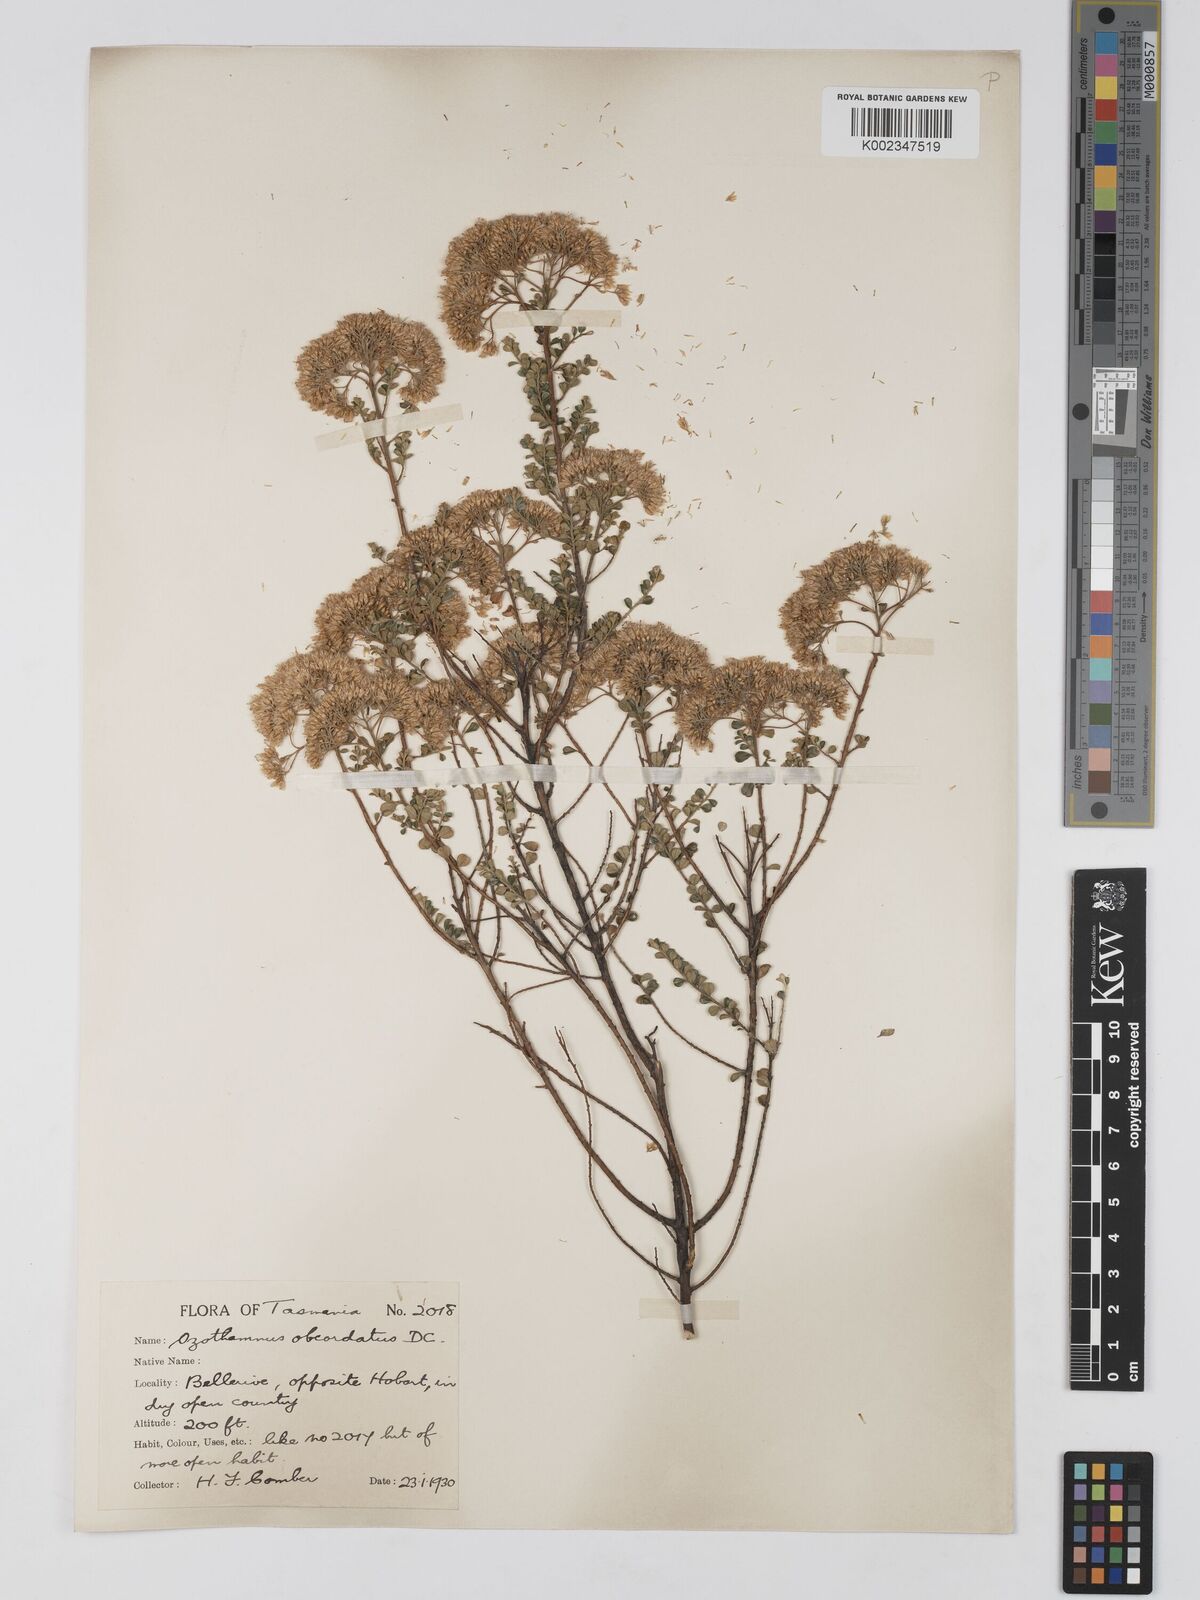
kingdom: Plantae
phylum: Tracheophyta
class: Magnoliopsida
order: Asterales
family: Asteraceae
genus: Ozothamnus
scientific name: Ozothamnus
